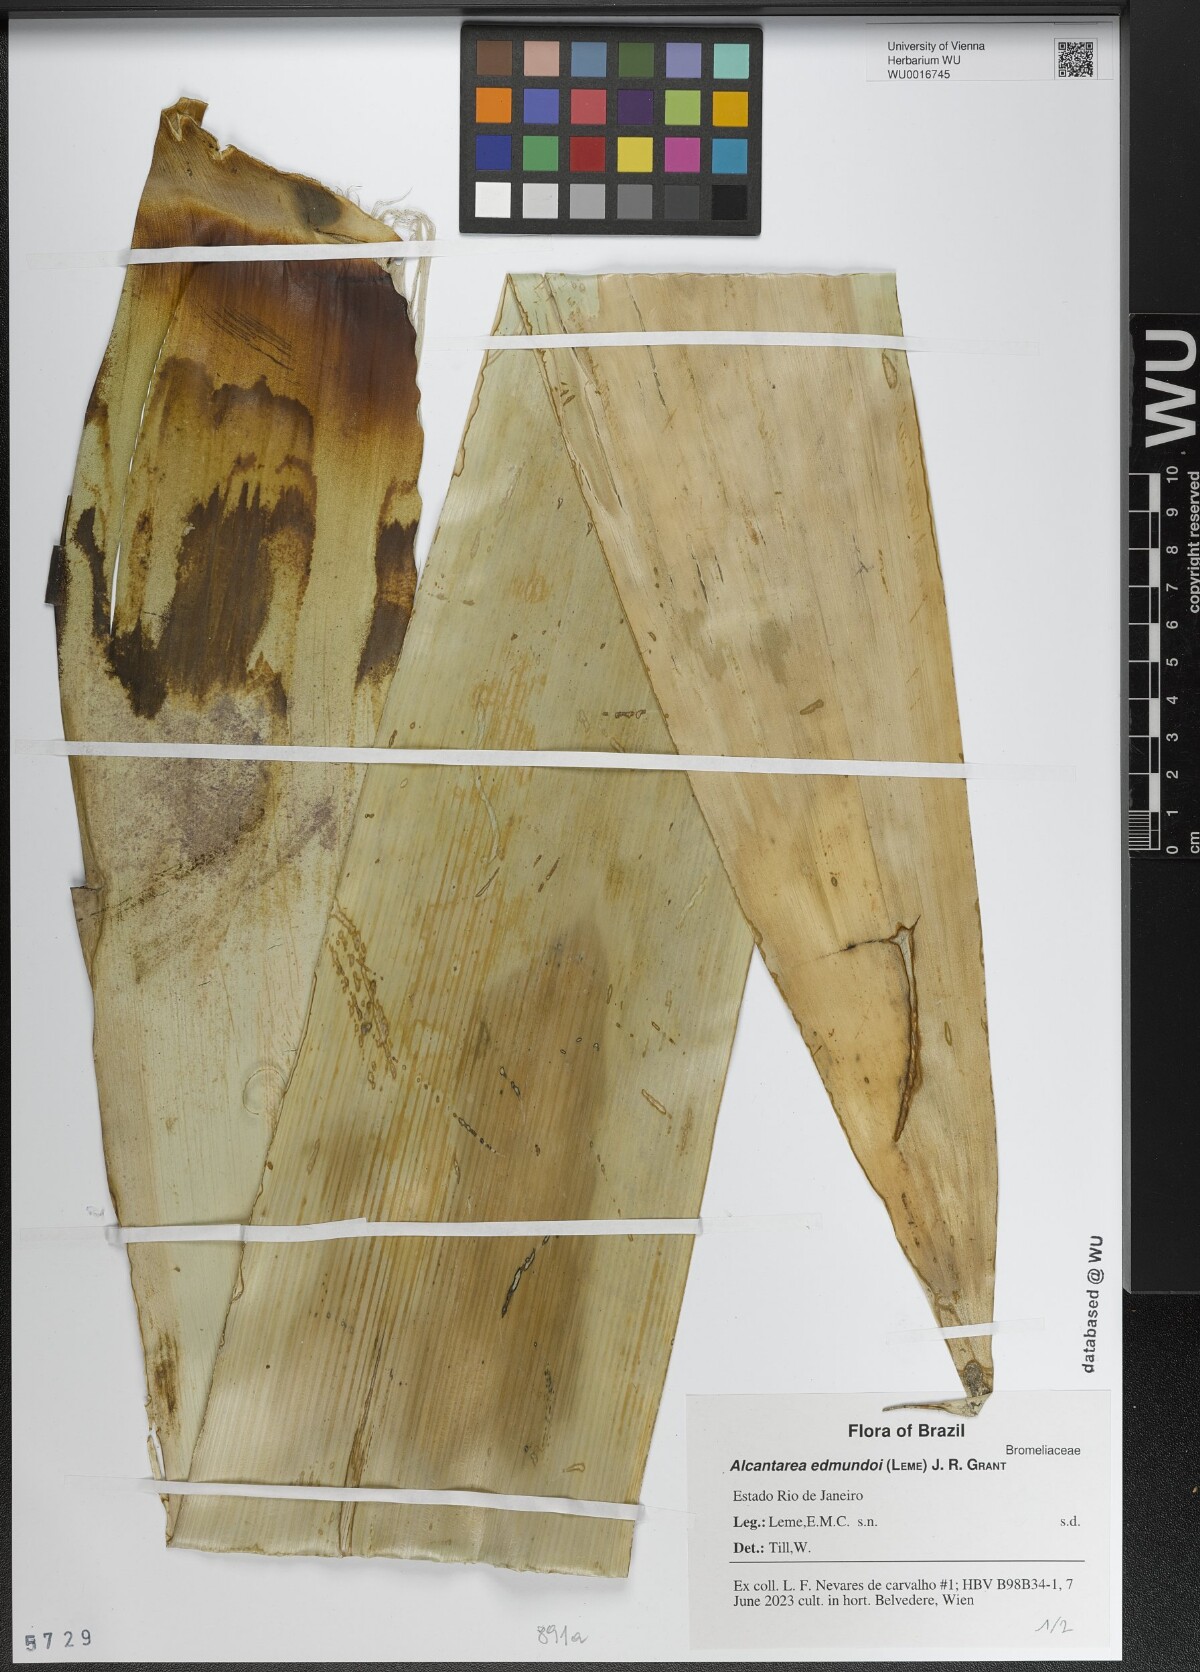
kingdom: Plantae
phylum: Tracheophyta
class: Liliopsida
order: Poales
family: Bromeliaceae
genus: Alcantarea
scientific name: Alcantarea regina
